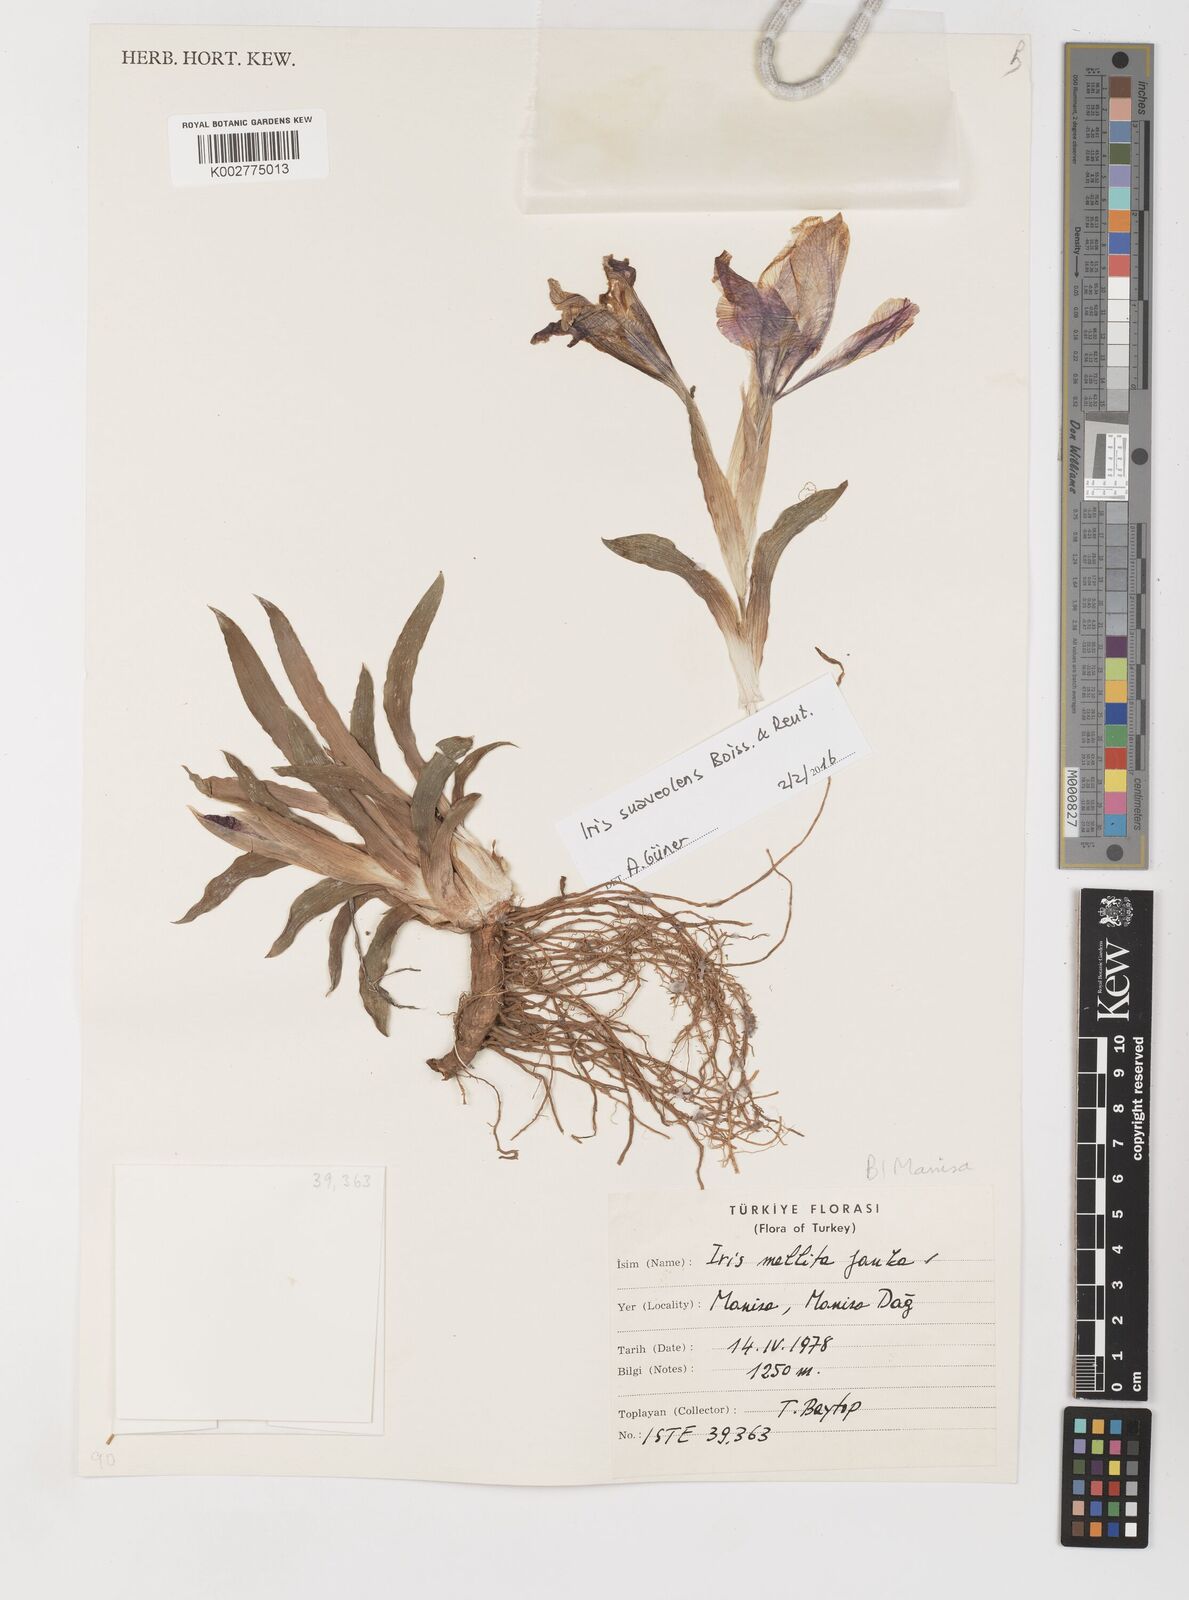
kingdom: Plantae
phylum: Tracheophyta
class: Liliopsida
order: Asparagales
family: Iridaceae
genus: Iris
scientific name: Iris suaveolens
